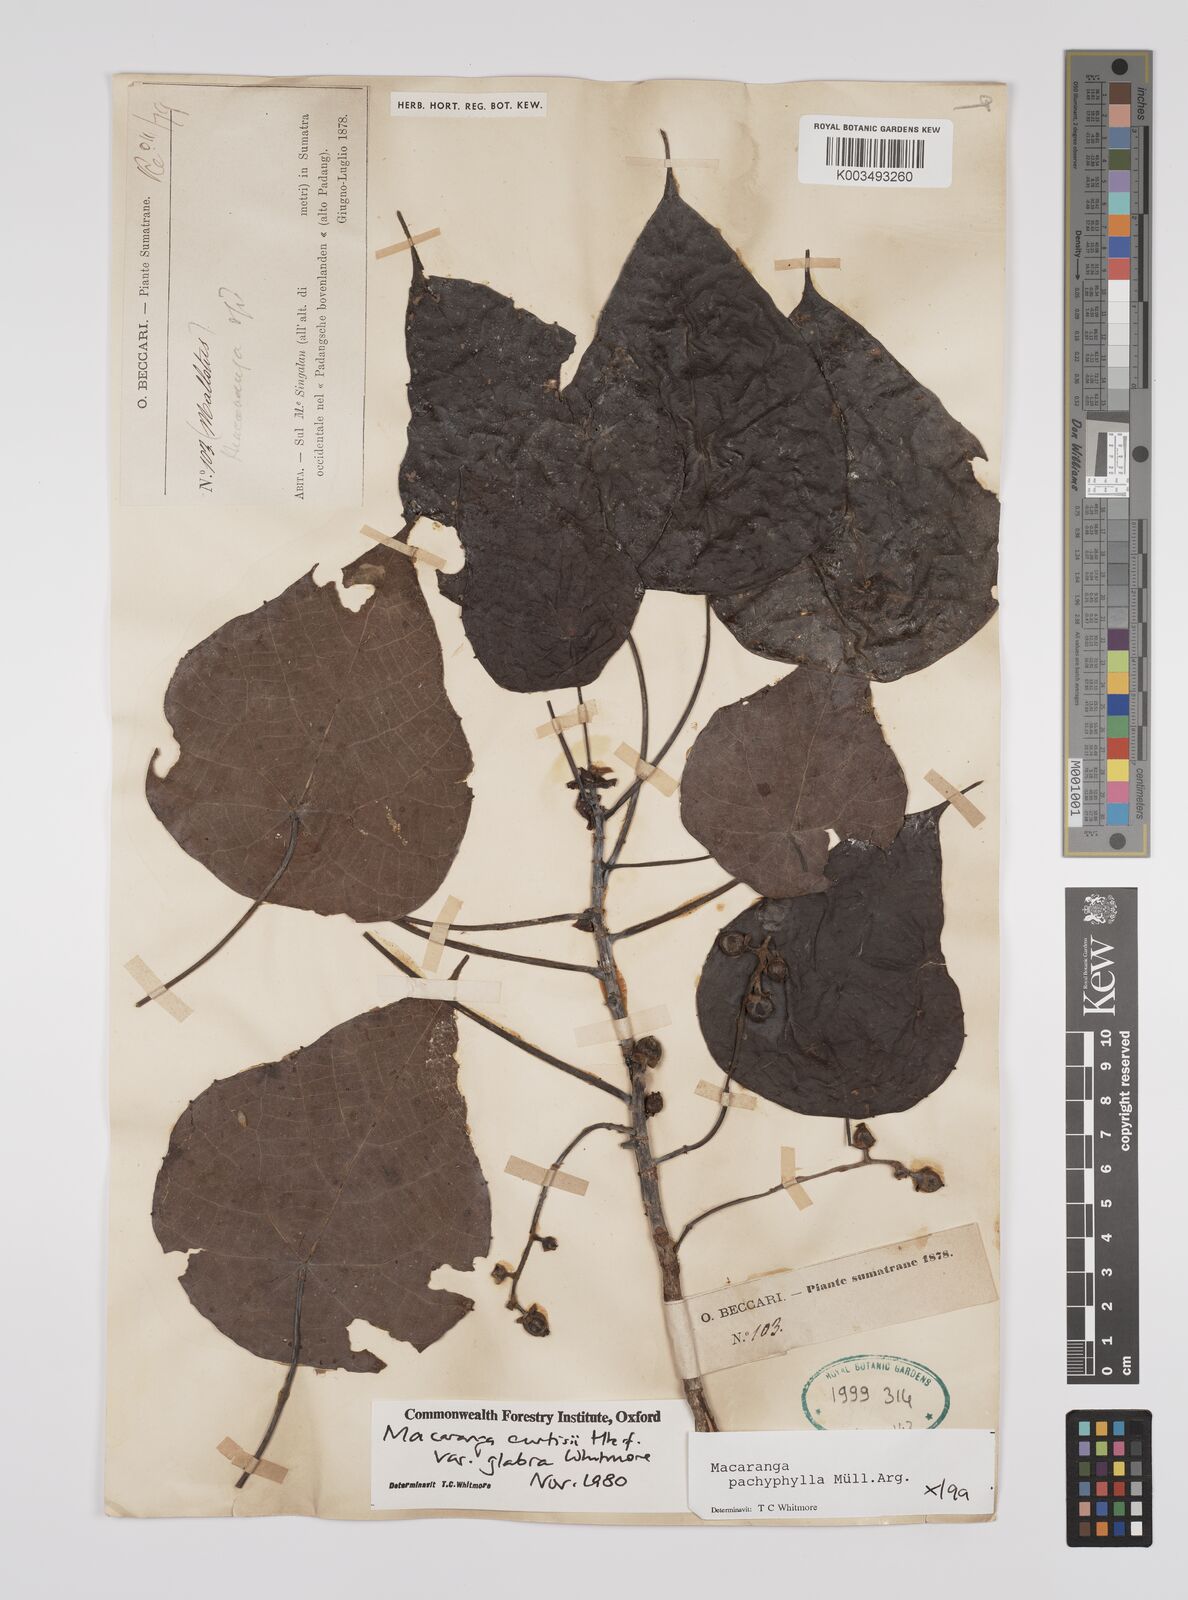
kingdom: Plantae
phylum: Tracheophyta
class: Magnoliopsida
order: Malpighiales
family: Euphorbiaceae
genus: Macaranga
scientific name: Macaranga pachyphylla
